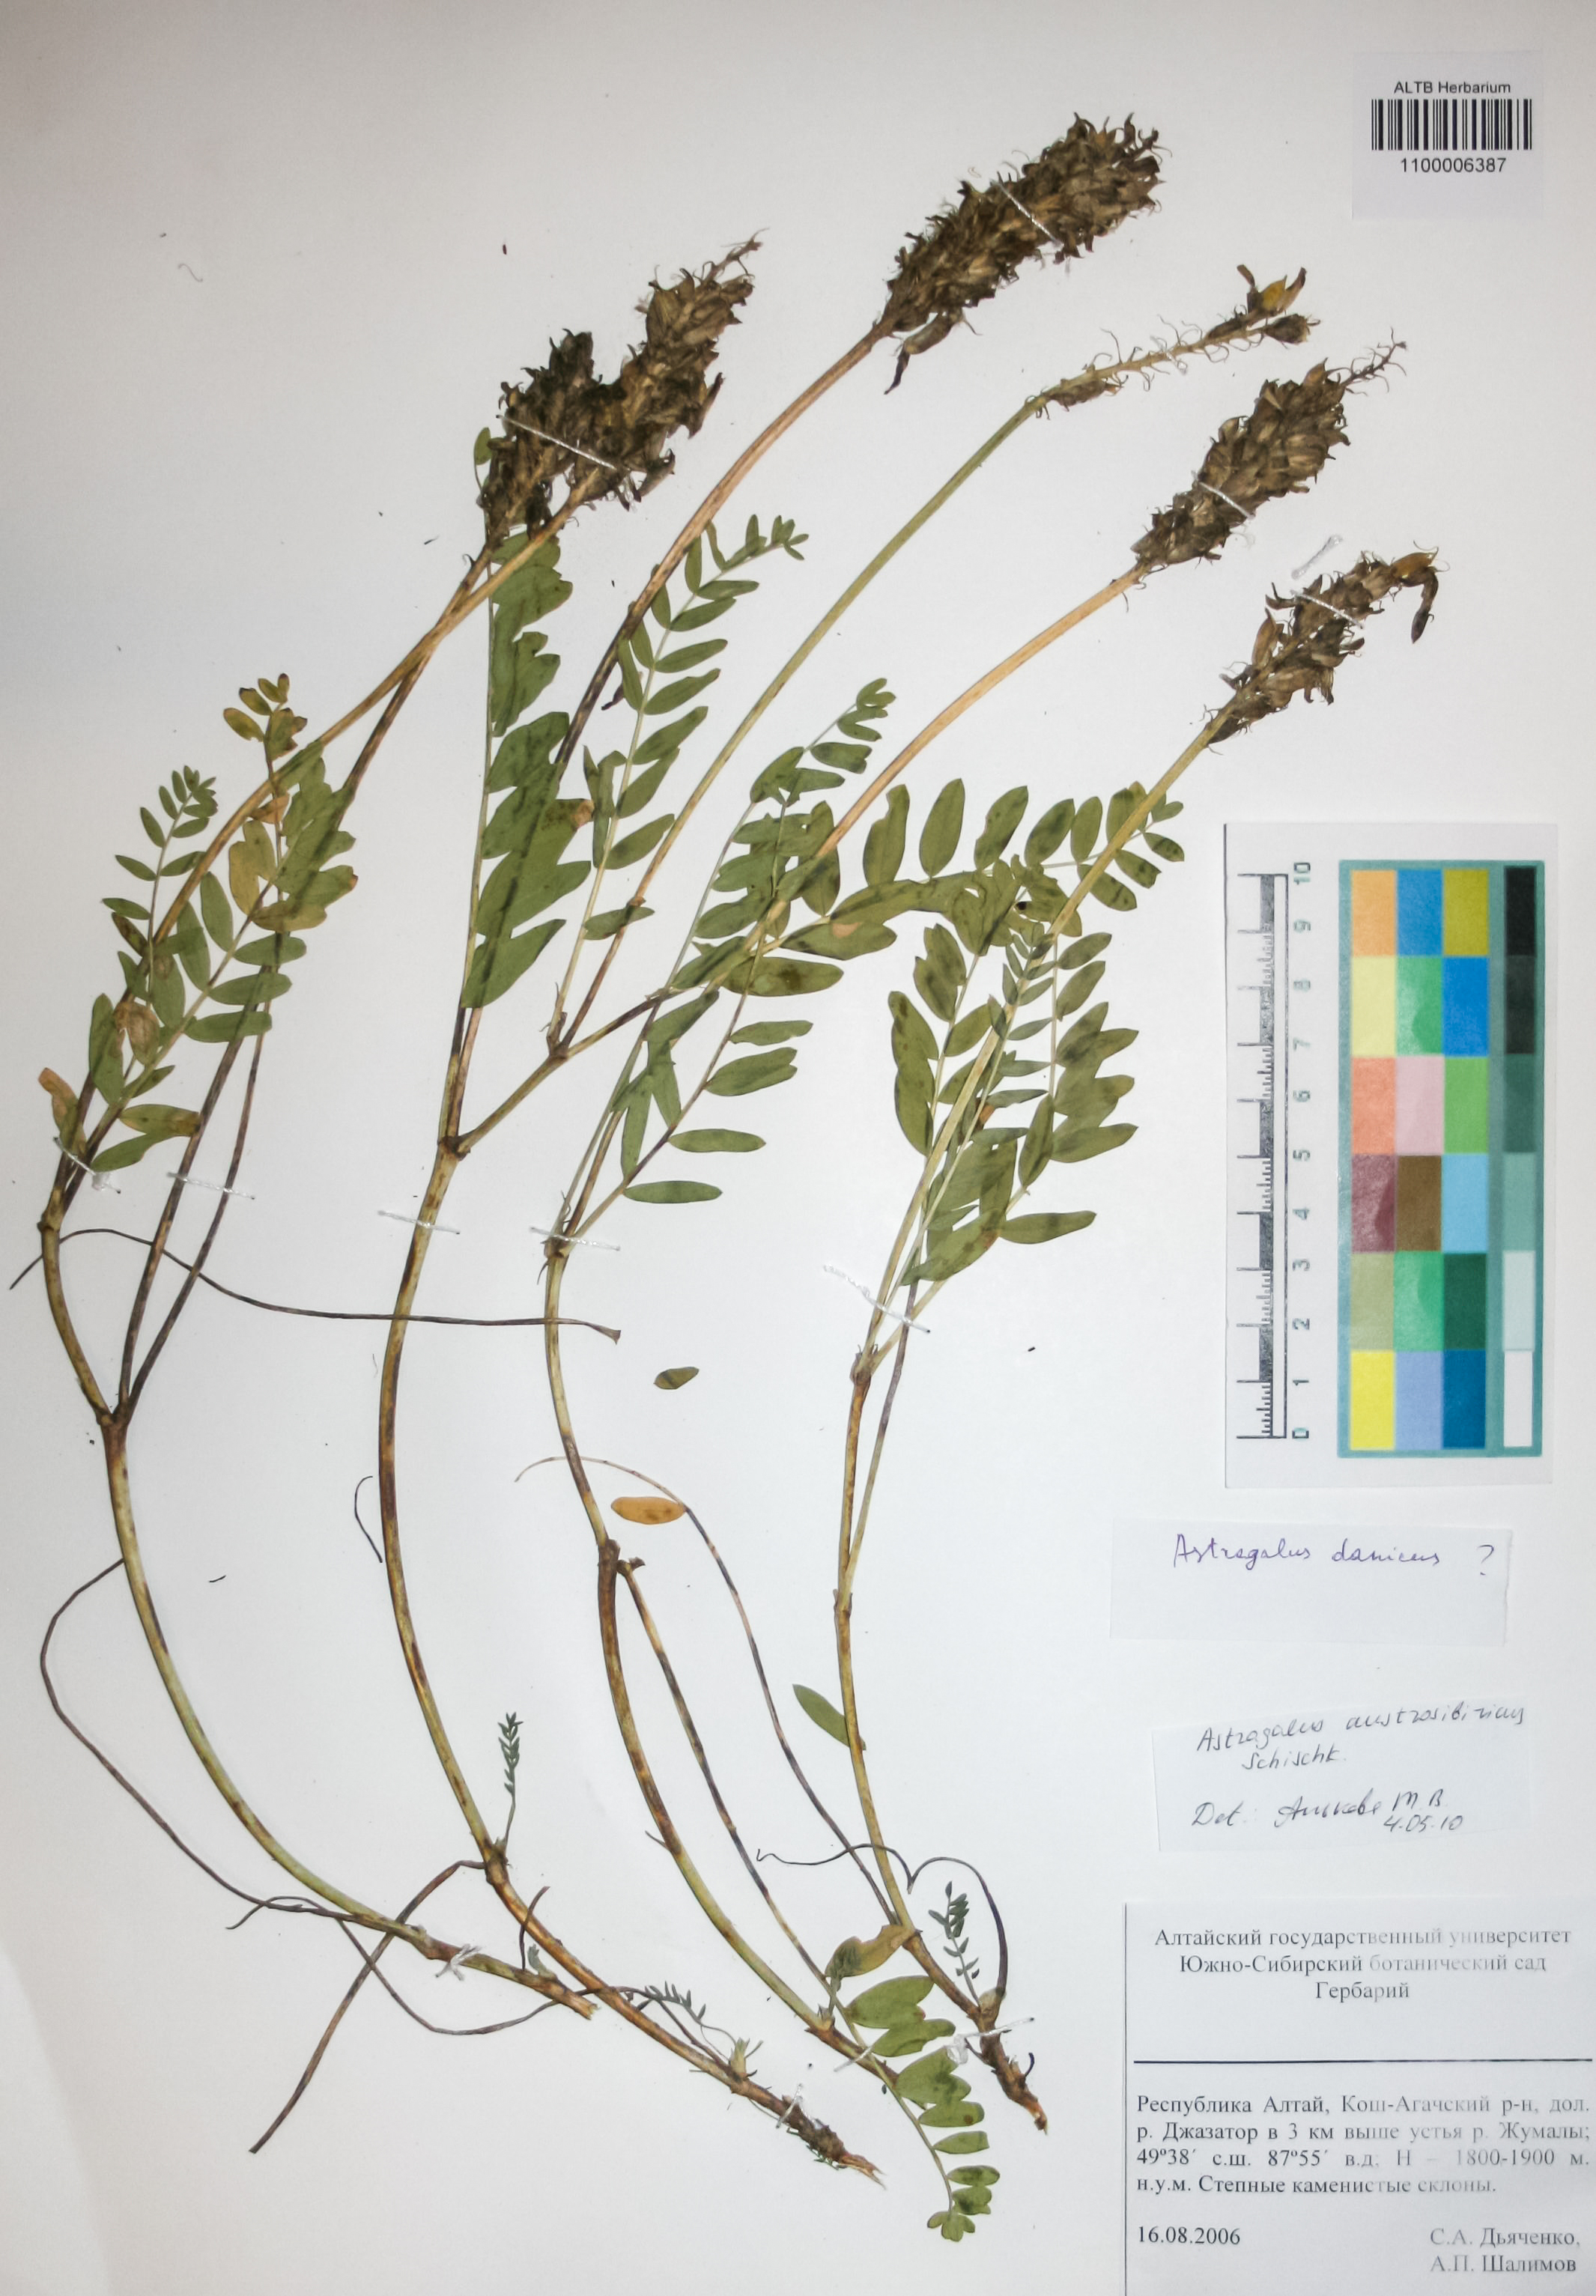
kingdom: Plantae
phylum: Tracheophyta
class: Magnoliopsida
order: Fabales
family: Fabaceae
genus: Astragalus
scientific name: Astragalus laxmannii
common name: Laxmann's milk-vetch
